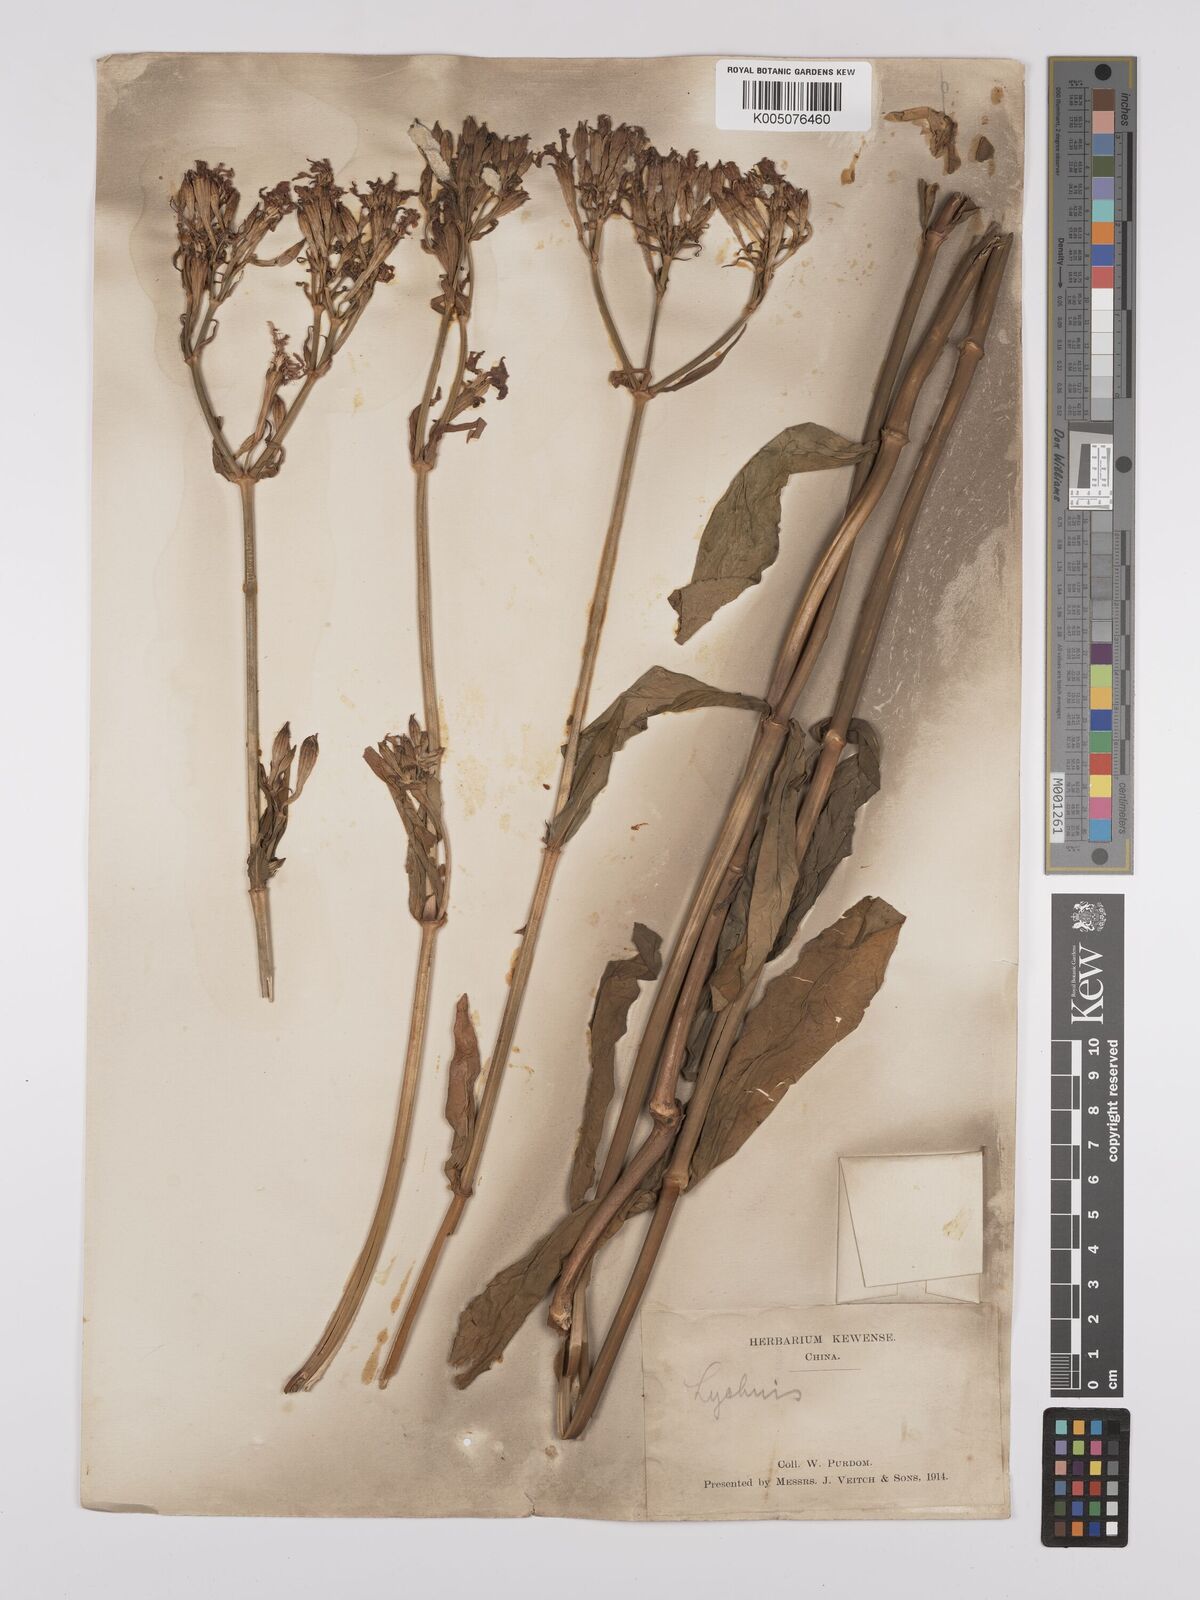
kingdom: Plantae
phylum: Tracheophyta
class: Magnoliopsida
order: Caryophyllales
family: Caryophyllaceae
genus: Silene
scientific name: Silene
